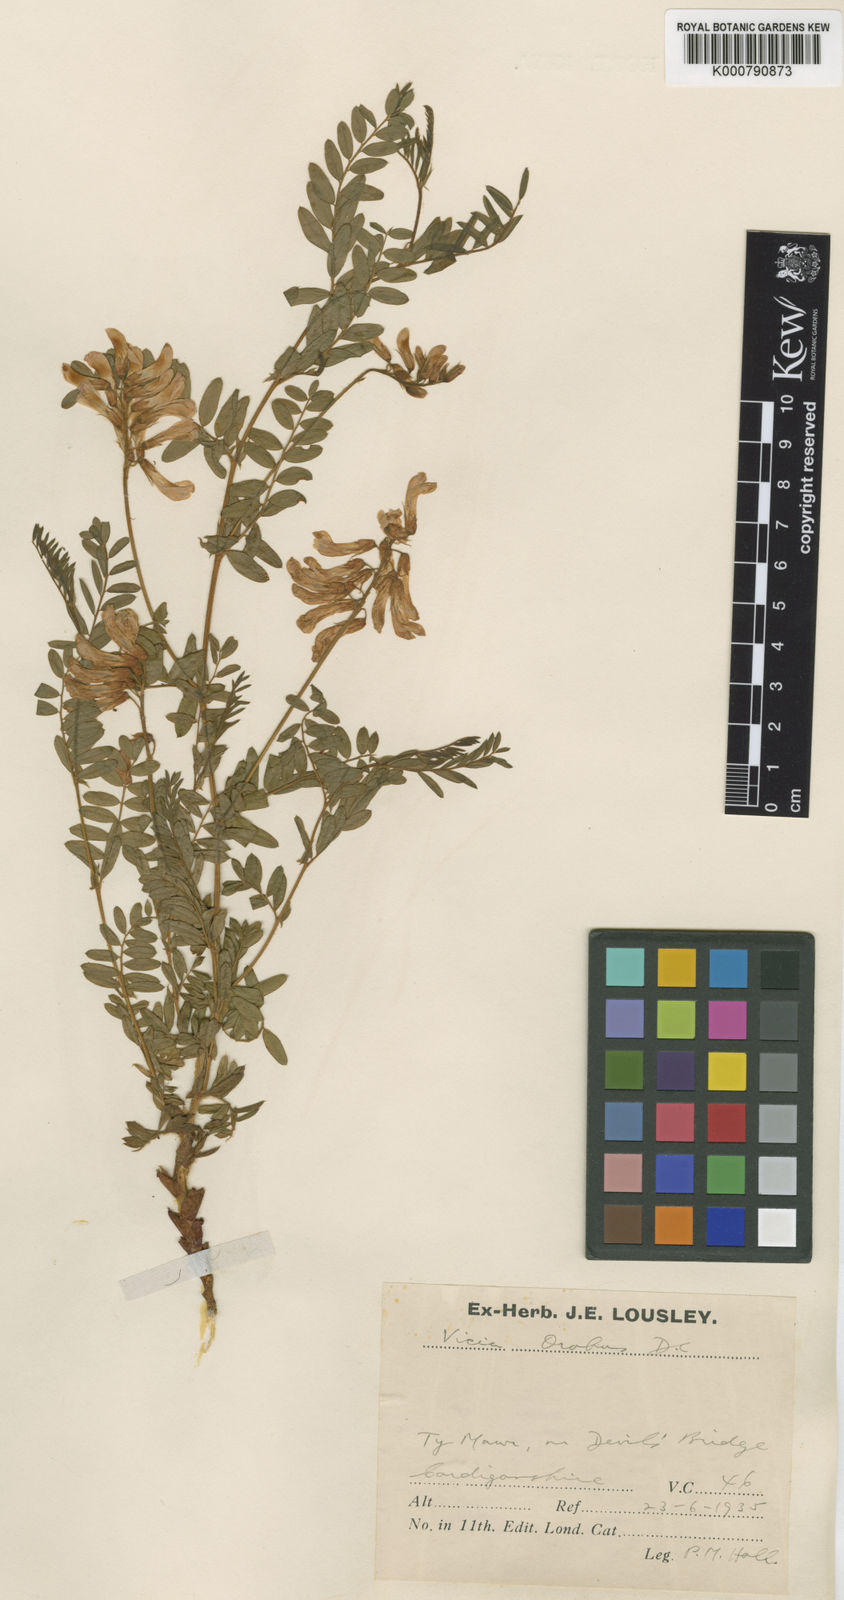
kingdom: Plantae
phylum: Tracheophyta
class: Magnoliopsida
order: Fabales
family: Fabaceae
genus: Vicia
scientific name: Vicia orobus
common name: Wood bitter-vetch
